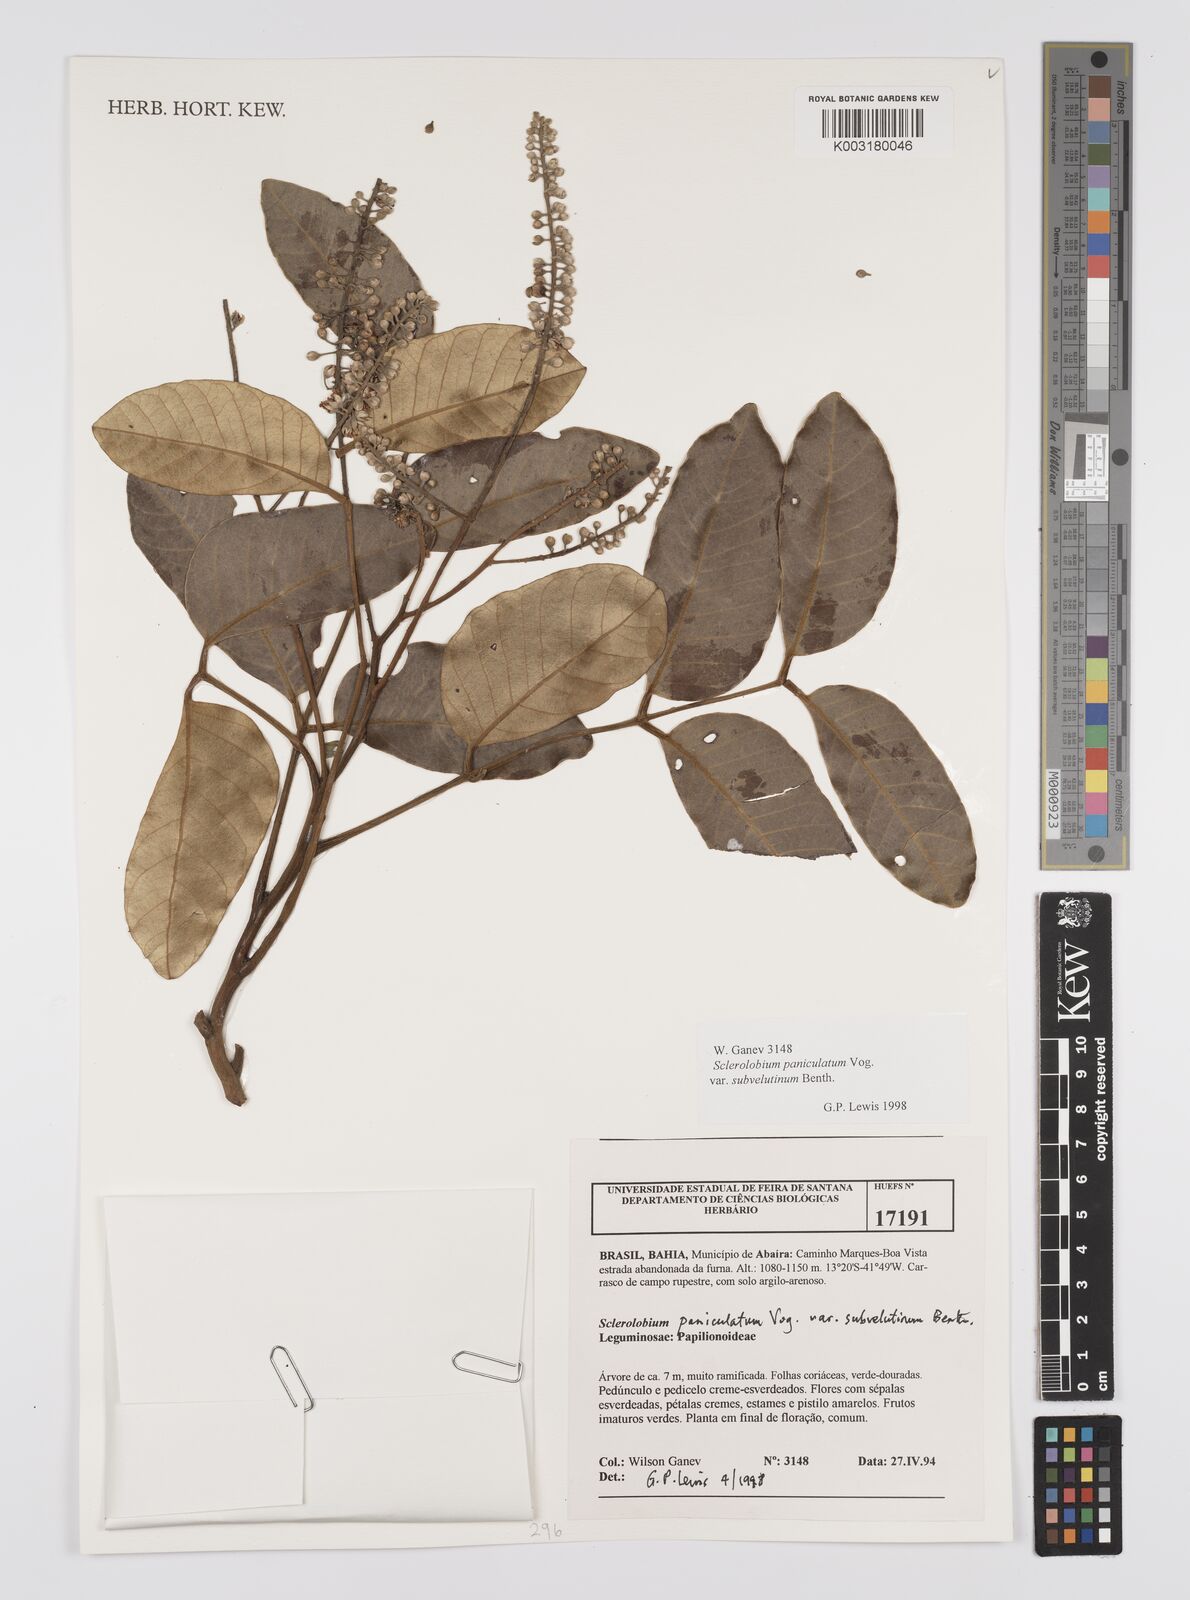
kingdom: Plantae
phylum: Tracheophyta
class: Magnoliopsida
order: Fabales
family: Fabaceae
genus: Tachigali
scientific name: Tachigali subvelutina
